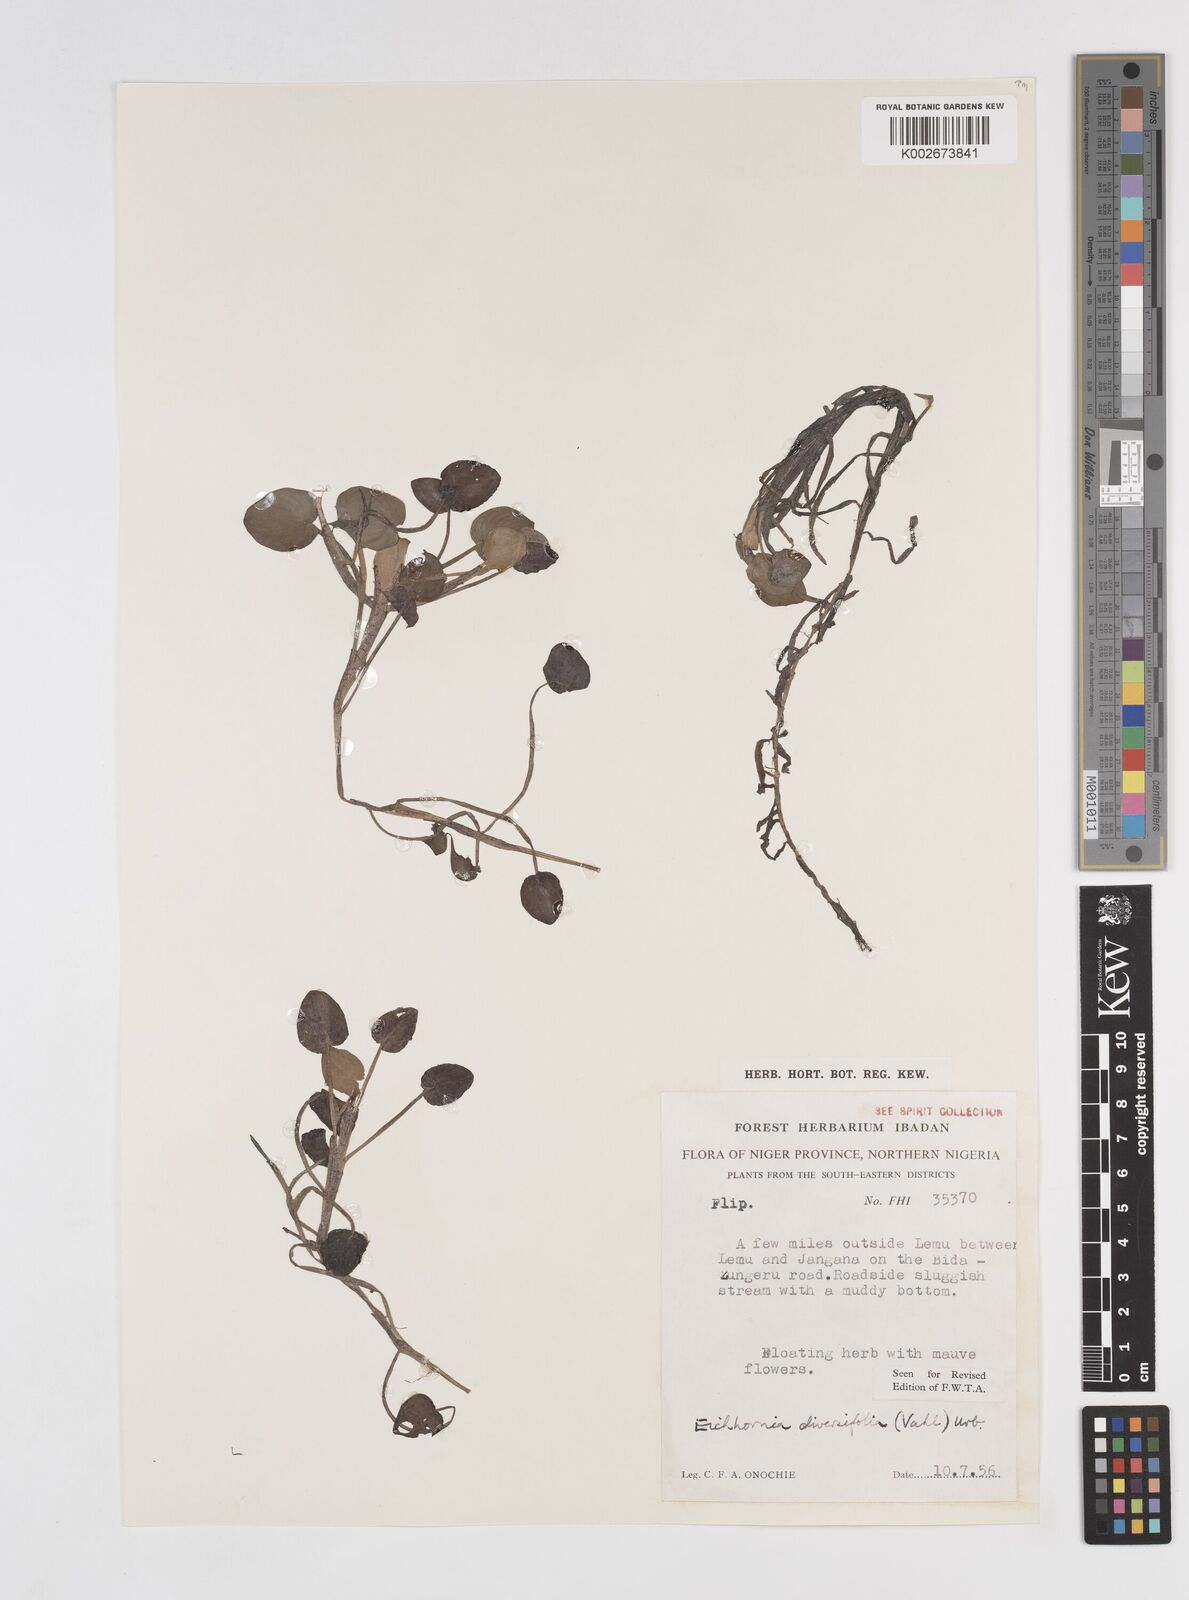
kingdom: Plantae
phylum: Tracheophyta
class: Liliopsida
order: Commelinales
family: Pontederiaceae
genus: Pontederia
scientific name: Pontederia diversifolia
